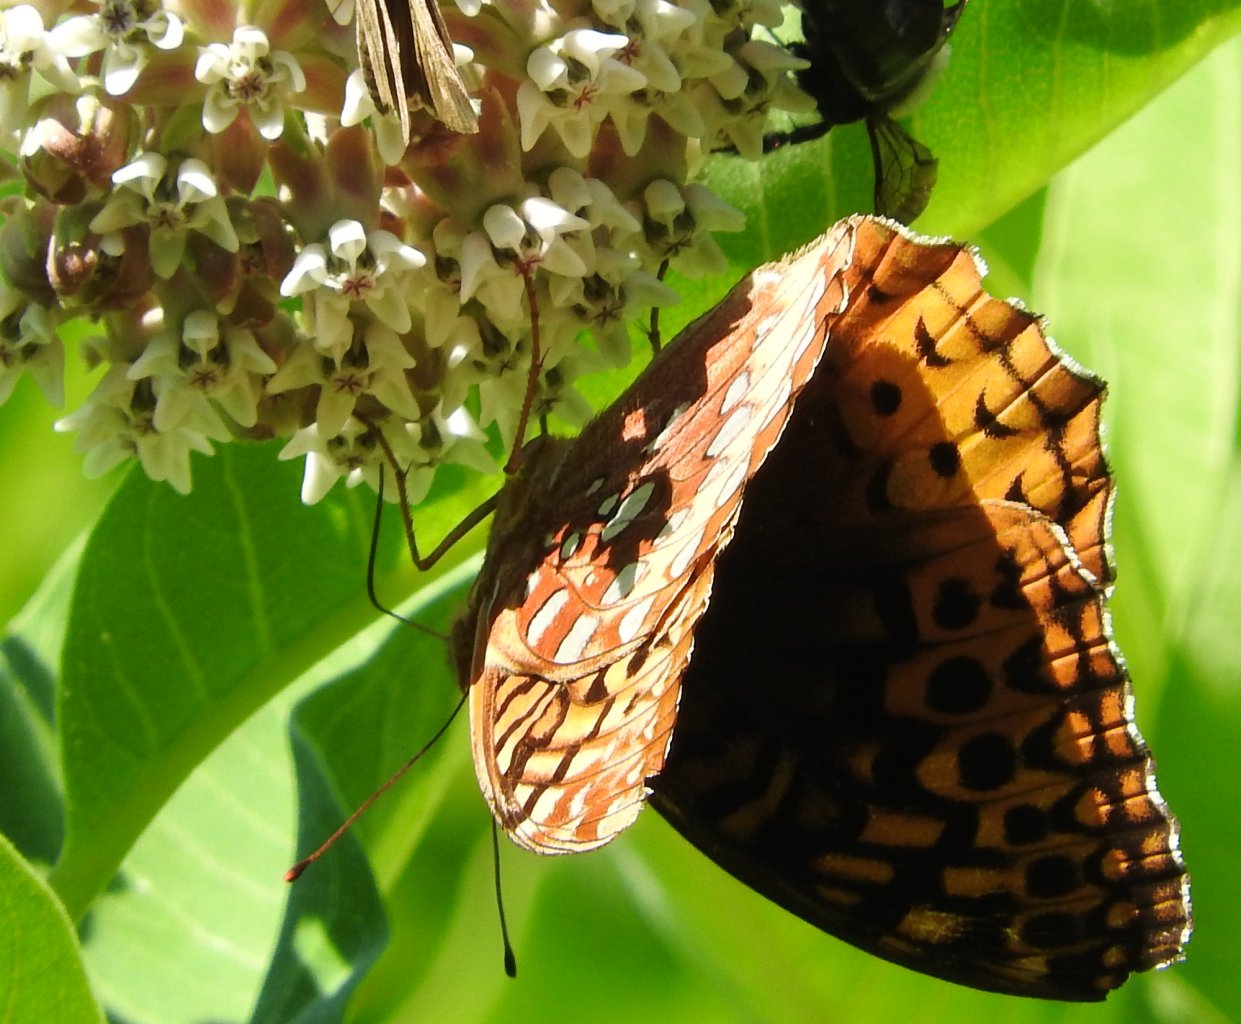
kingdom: Animalia
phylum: Arthropoda
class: Insecta
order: Lepidoptera
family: Nymphalidae
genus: Speyeria
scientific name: Speyeria cybele
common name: Great Spangled Fritillary
